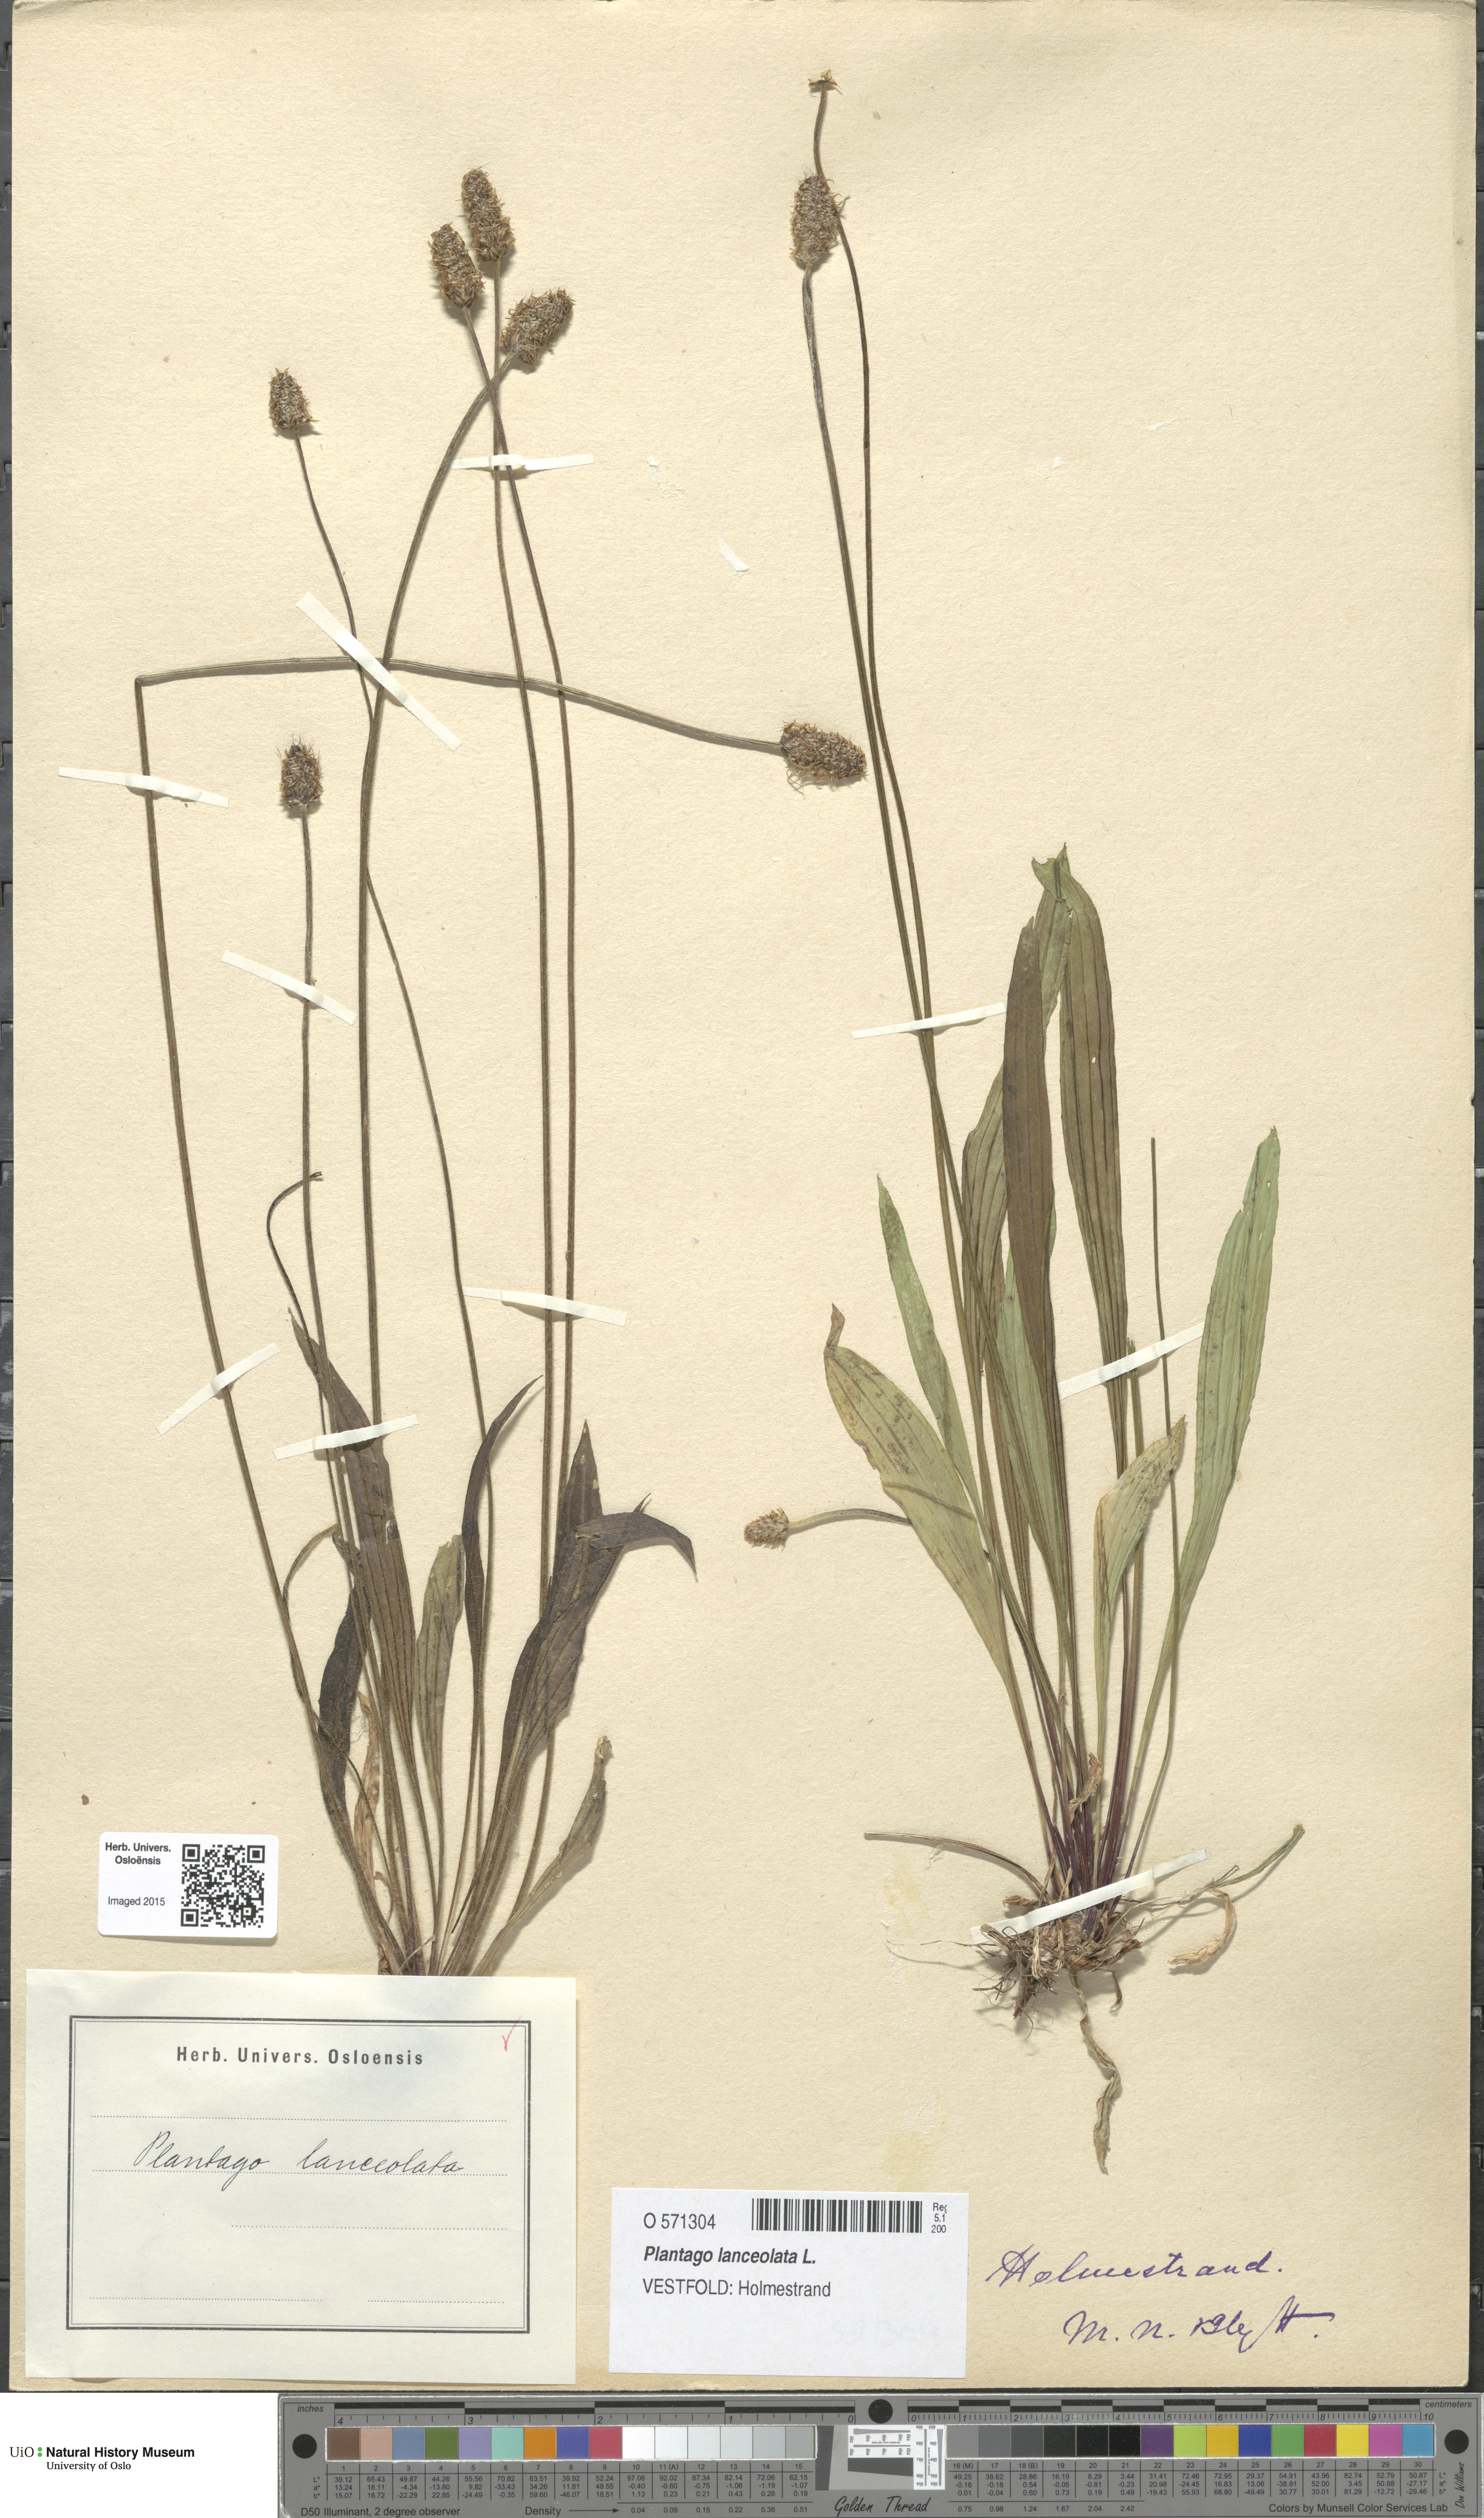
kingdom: Plantae
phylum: Tracheophyta
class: Magnoliopsida
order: Lamiales
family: Plantaginaceae
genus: Plantago
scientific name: Plantago lanceolata
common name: Ribwort plantain
